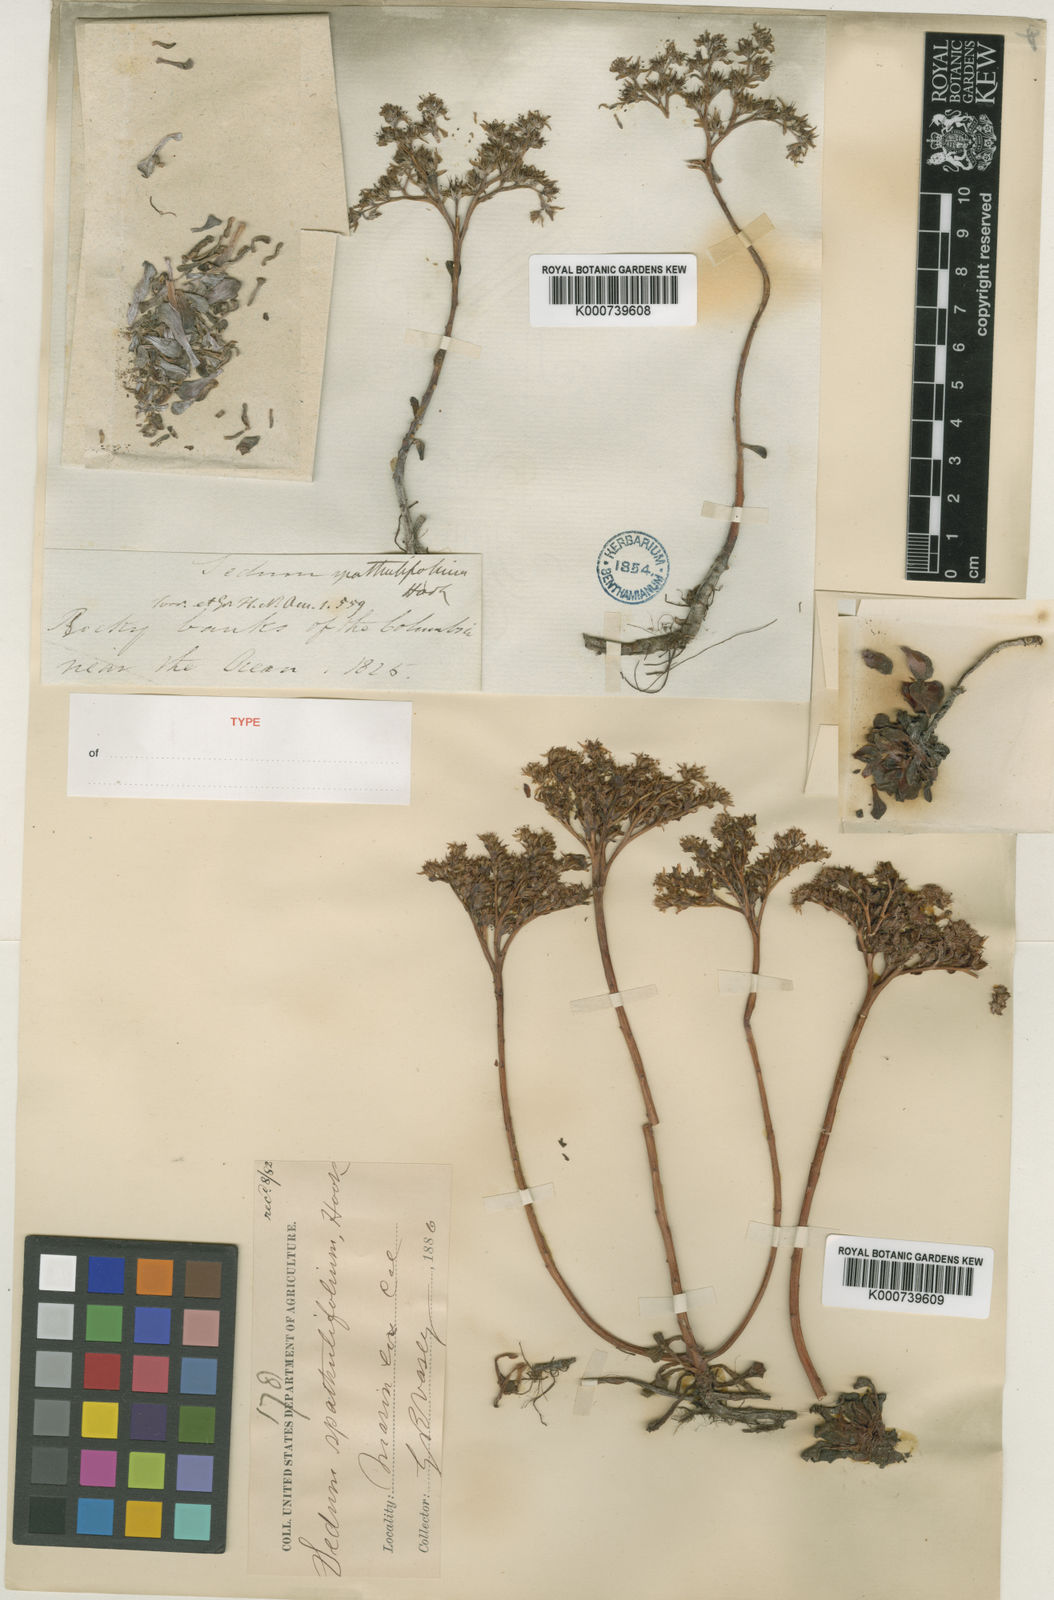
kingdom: Plantae
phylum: Tracheophyta
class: Magnoliopsida
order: Saxifragales
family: Crassulaceae
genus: Sedum
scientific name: Sedum spathulifolium
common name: Colorado stonecrop
